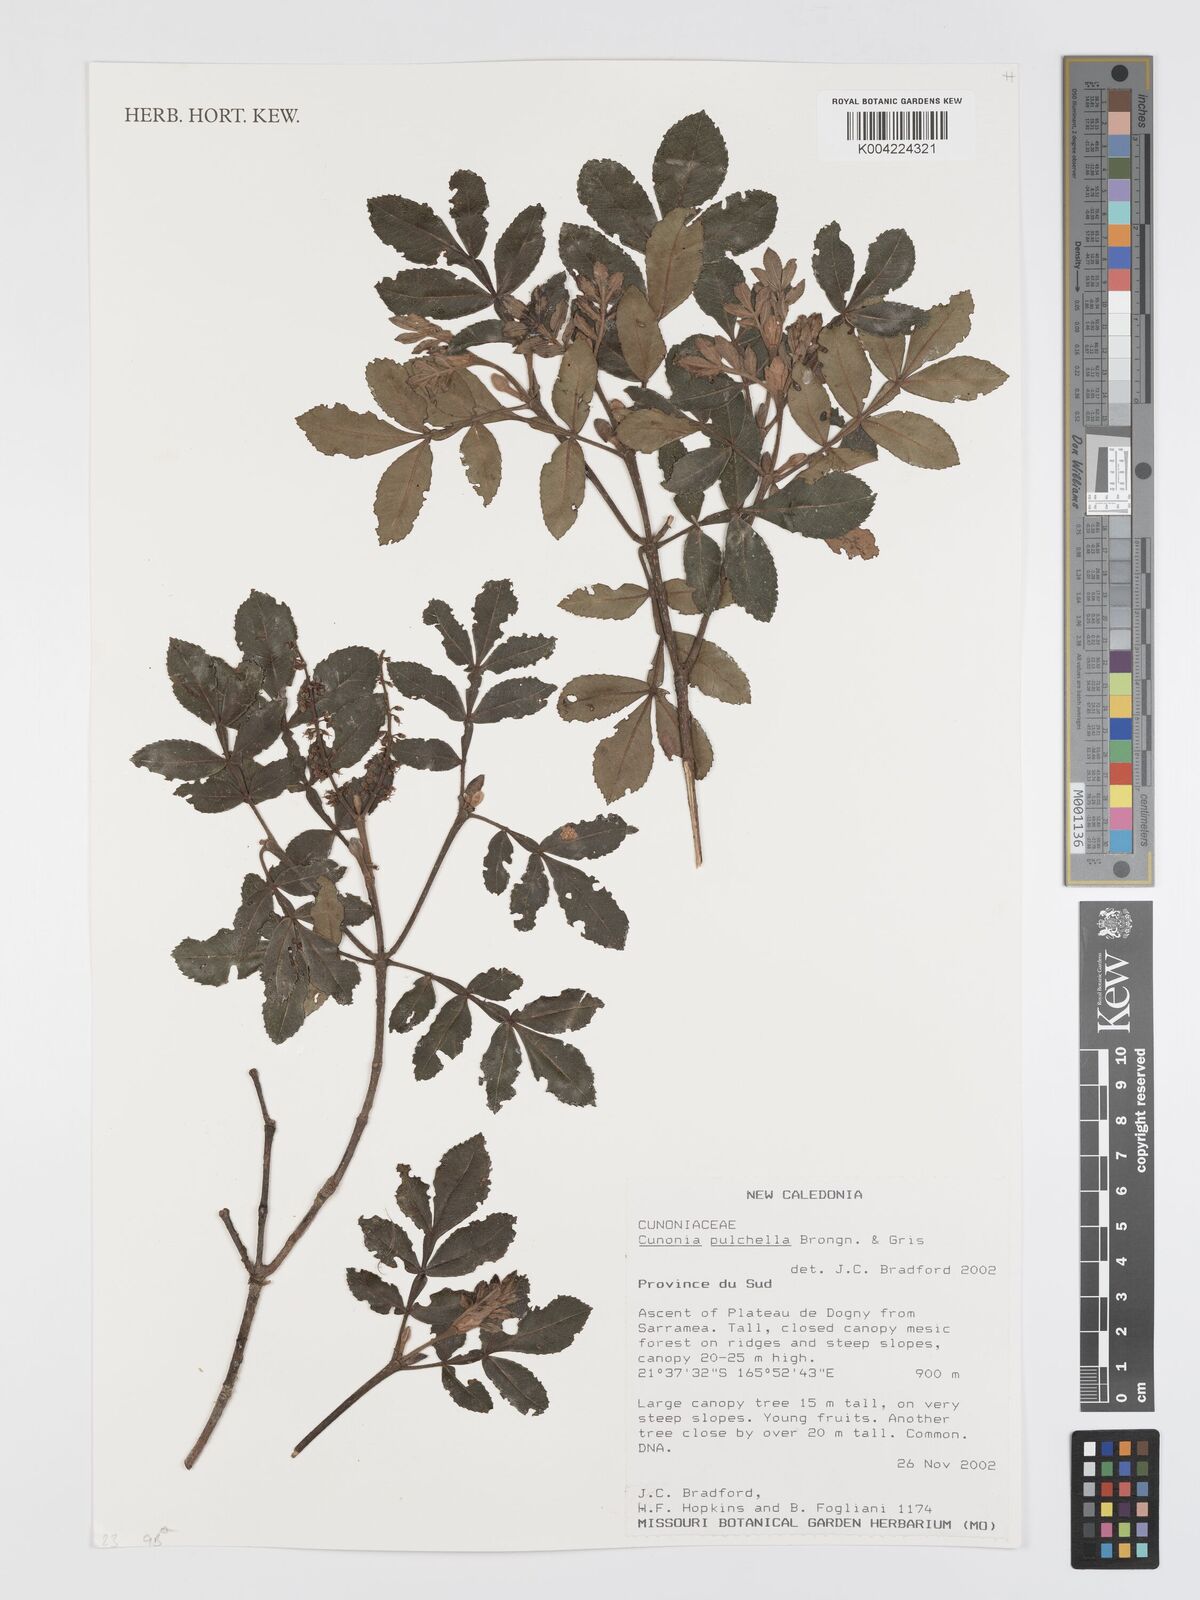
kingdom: Plantae
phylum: Tracheophyta
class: Magnoliopsida
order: Oxalidales
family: Cunoniaceae
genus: Cunonia
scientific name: Cunonia pulchella
